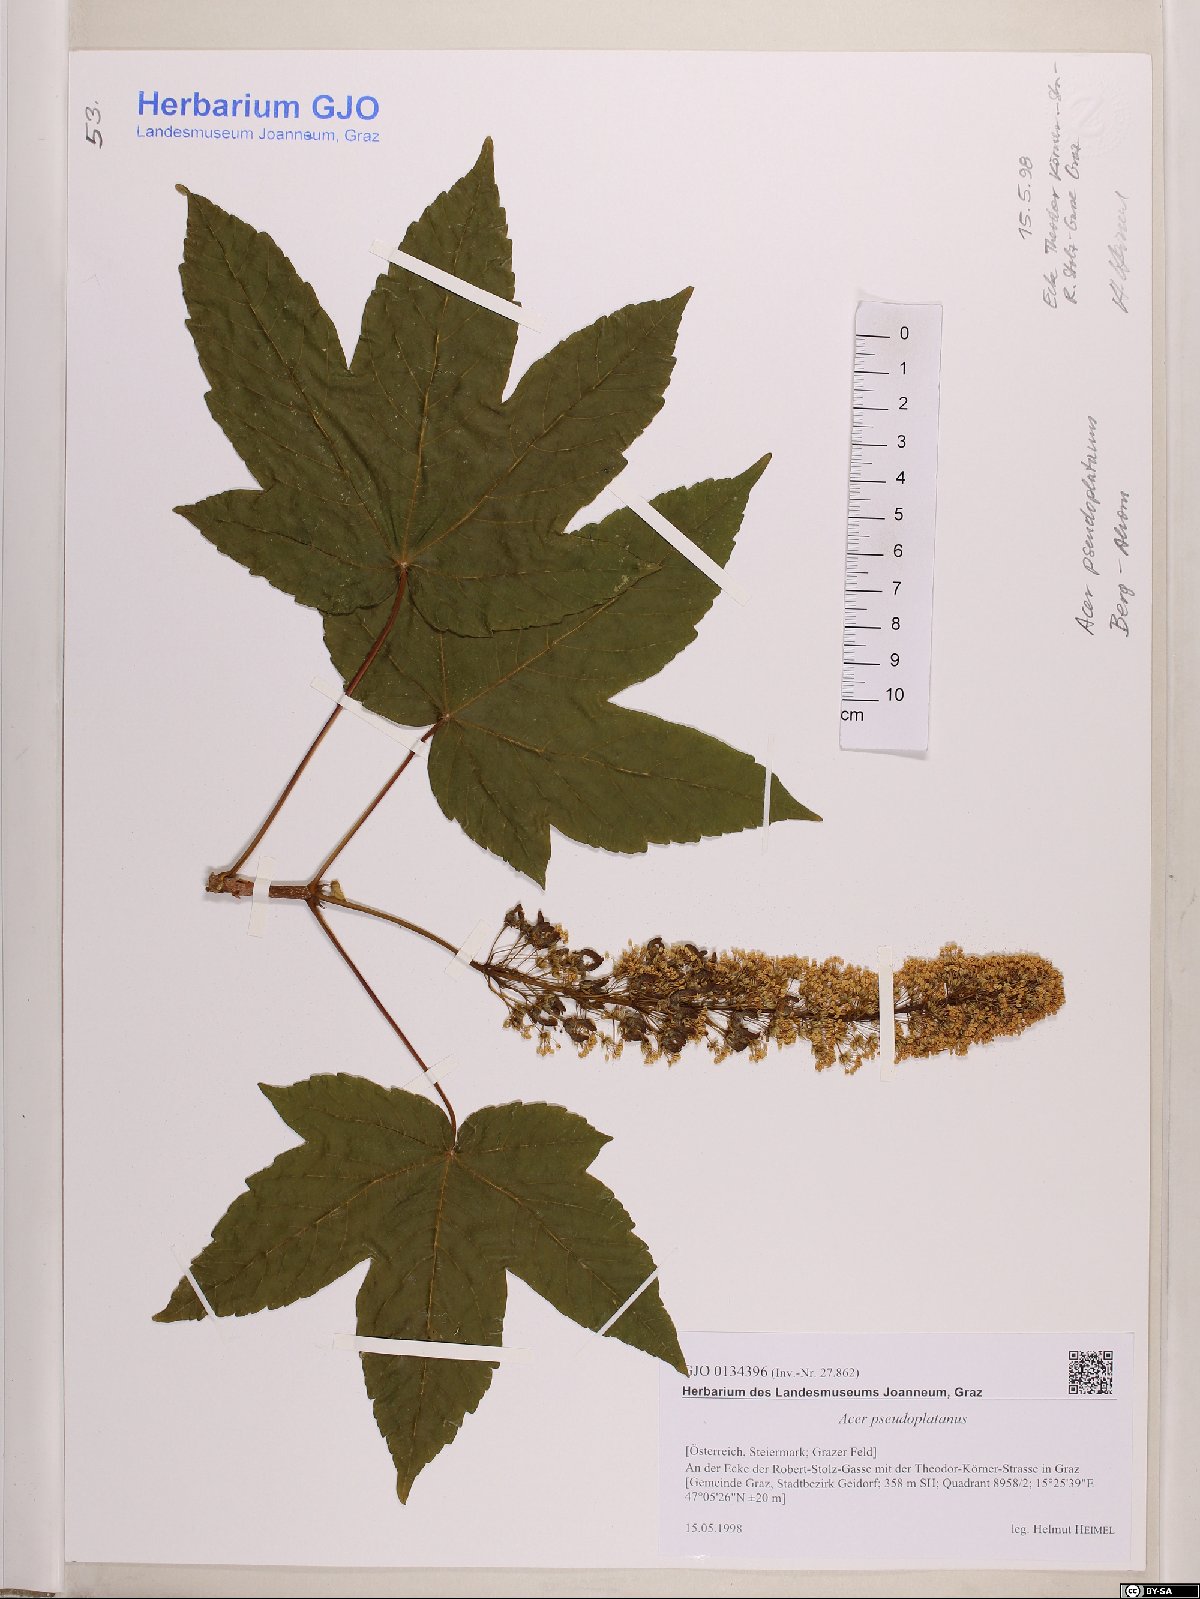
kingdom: Plantae
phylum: Tracheophyta
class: Magnoliopsida
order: Sapindales
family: Sapindaceae
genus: Acer
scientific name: Acer pseudoplatanus
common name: Sycamore
